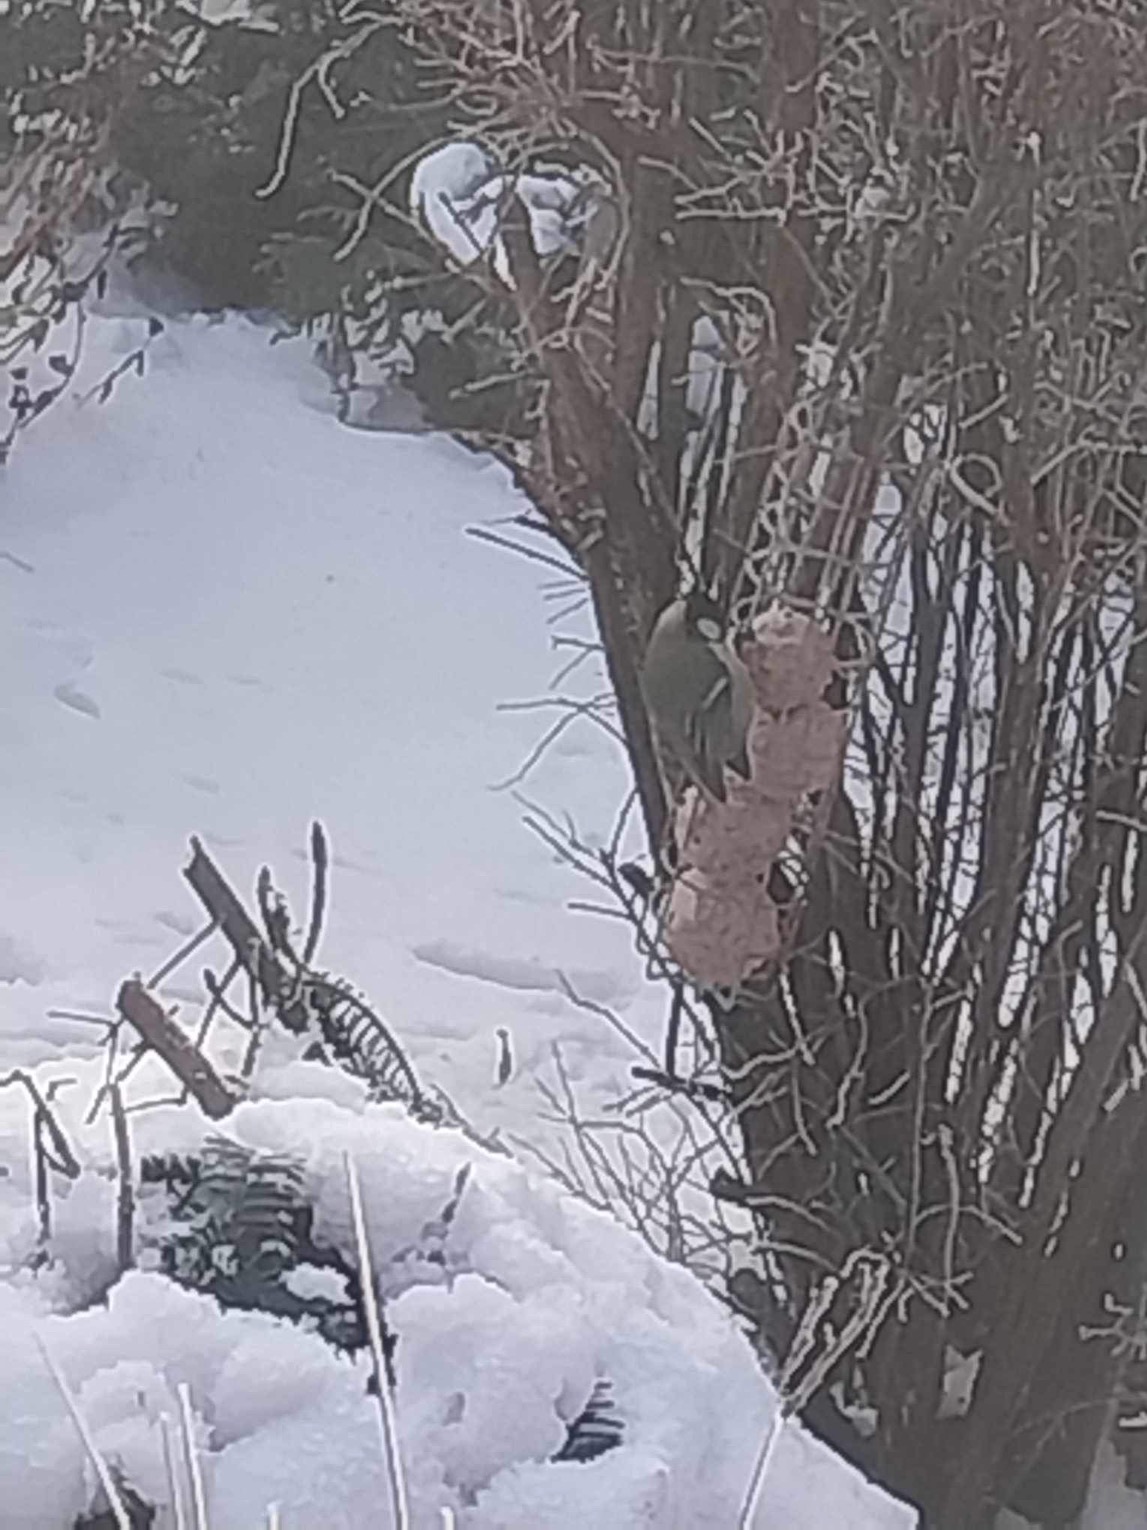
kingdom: Animalia
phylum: Chordata
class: Aves
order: Passeriformes
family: Paridae
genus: Parus
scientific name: Parus major
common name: Musvit
